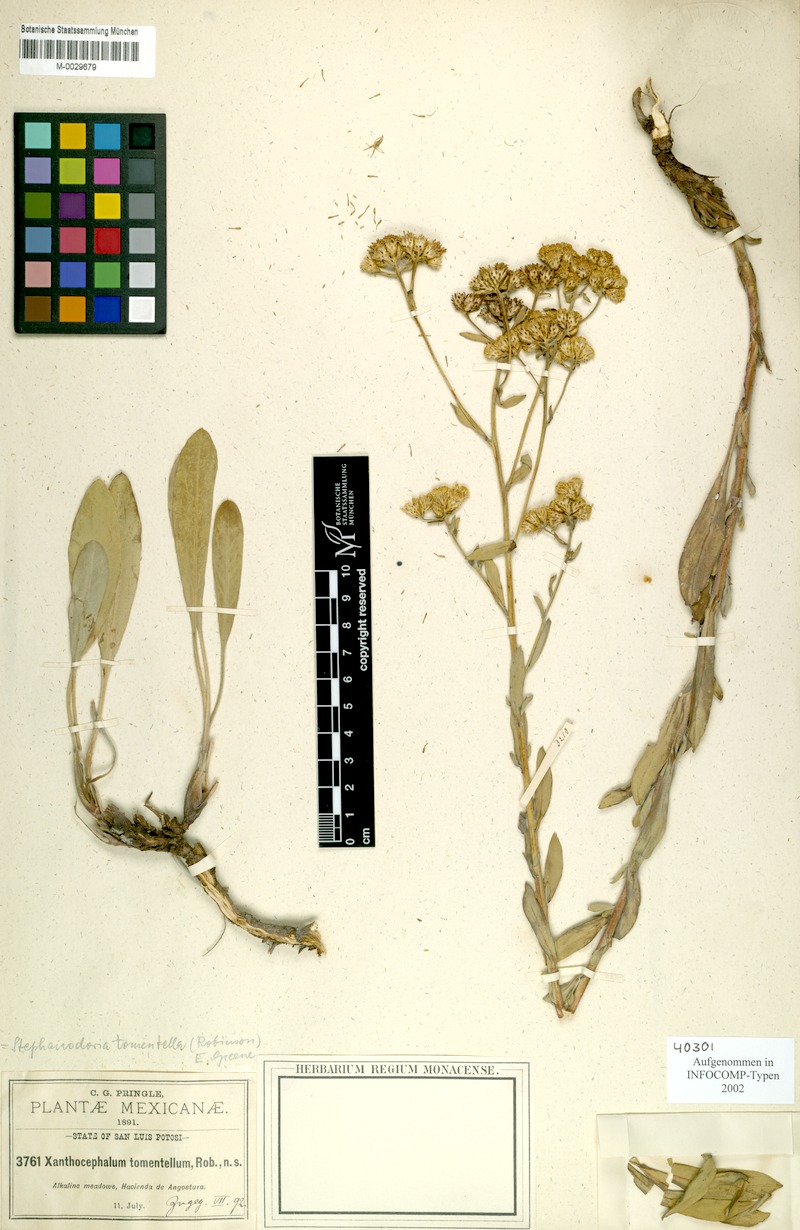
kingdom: Plantae
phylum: Tracheophyta
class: Magnoliopsida
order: Asterales
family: Asteraceae
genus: Stephanodoria
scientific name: Stephanodoria tomentella
